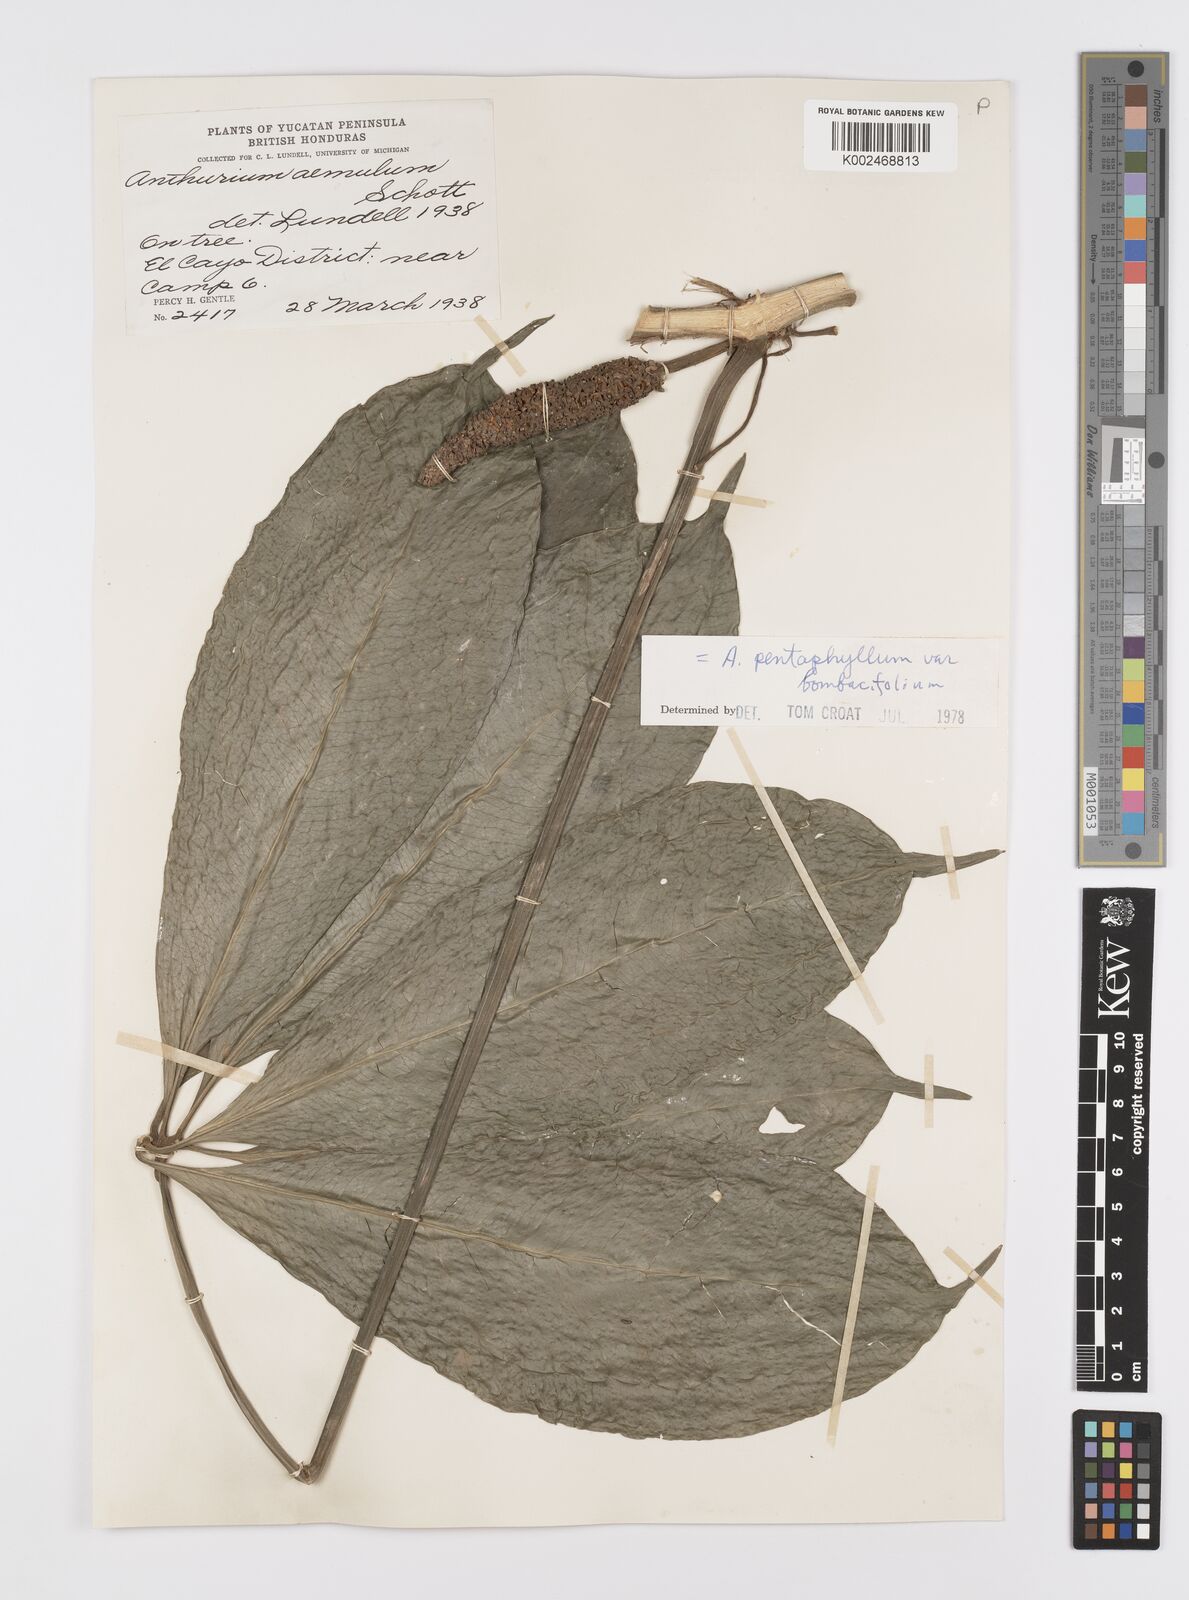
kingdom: Plantae
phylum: Tracheophyta
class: Liliopsida
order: Alismatales
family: Araceae
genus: Anthurium
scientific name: Anthurium pentaphyllum
